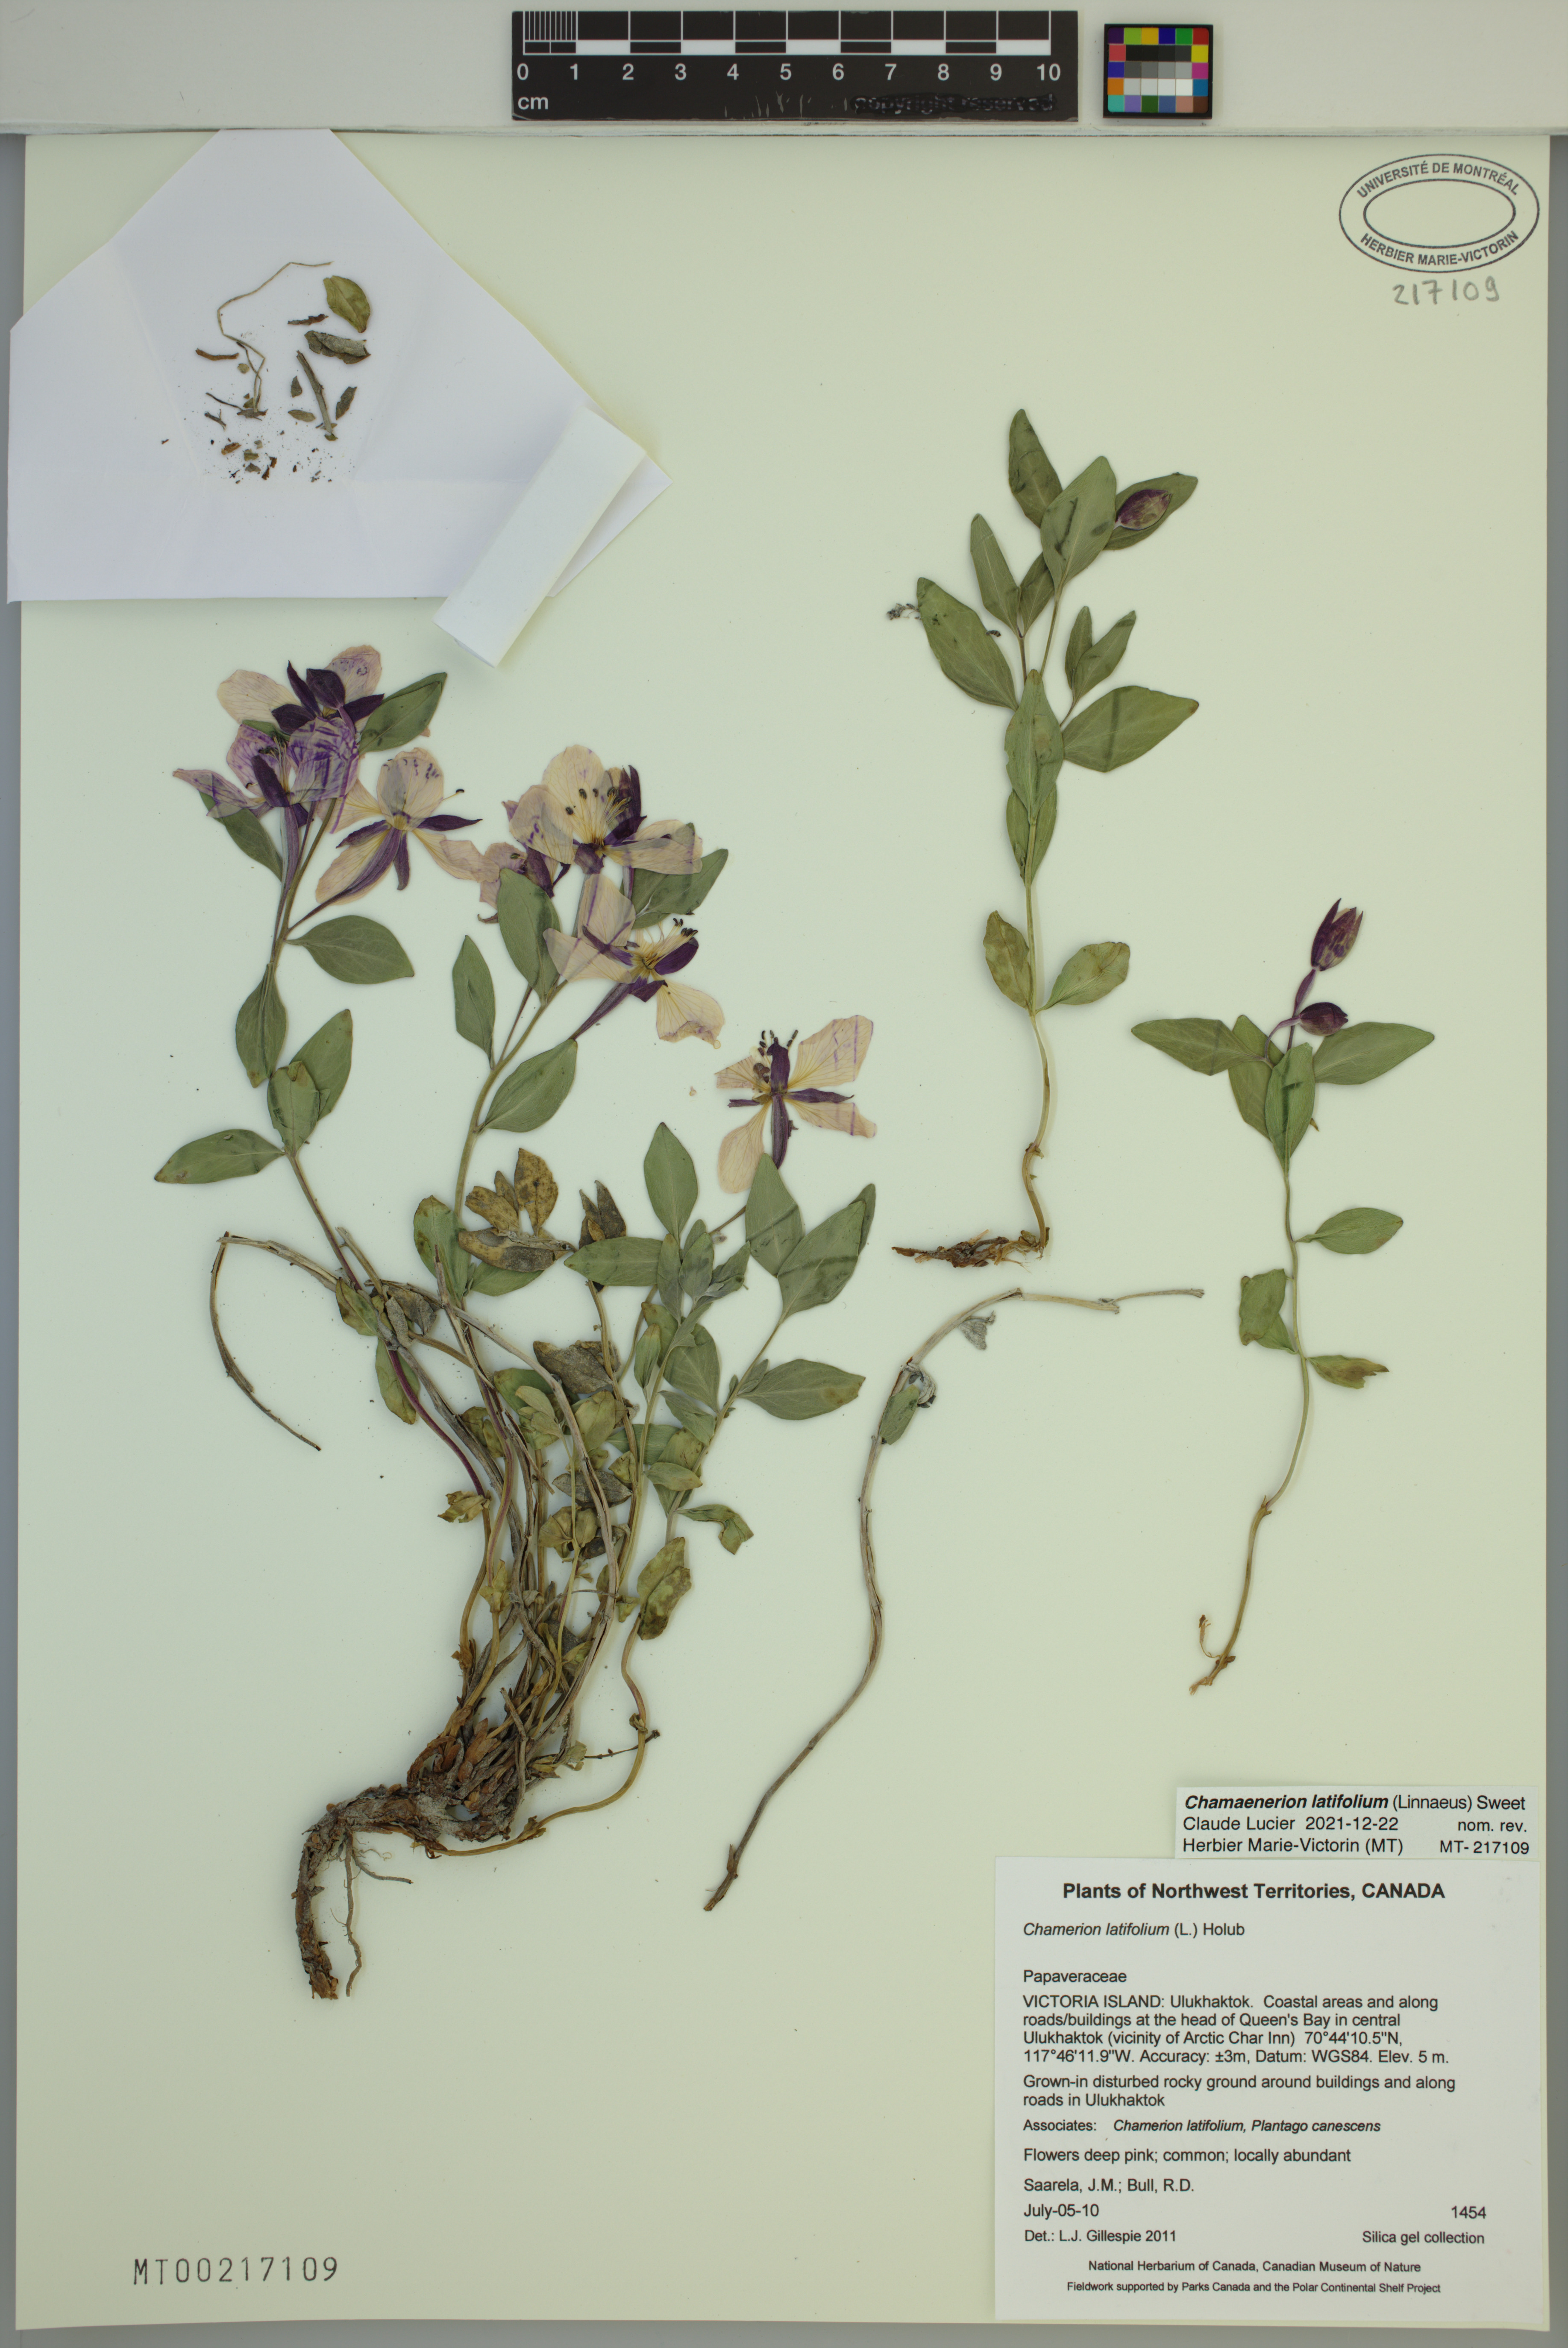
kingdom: Plantae
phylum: Tracheophyta
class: Magnoliopsida
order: Myrtales
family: Onagraceae
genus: Chamaenerion
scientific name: Chamaenerion latifolium
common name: Dwarf fireweed
